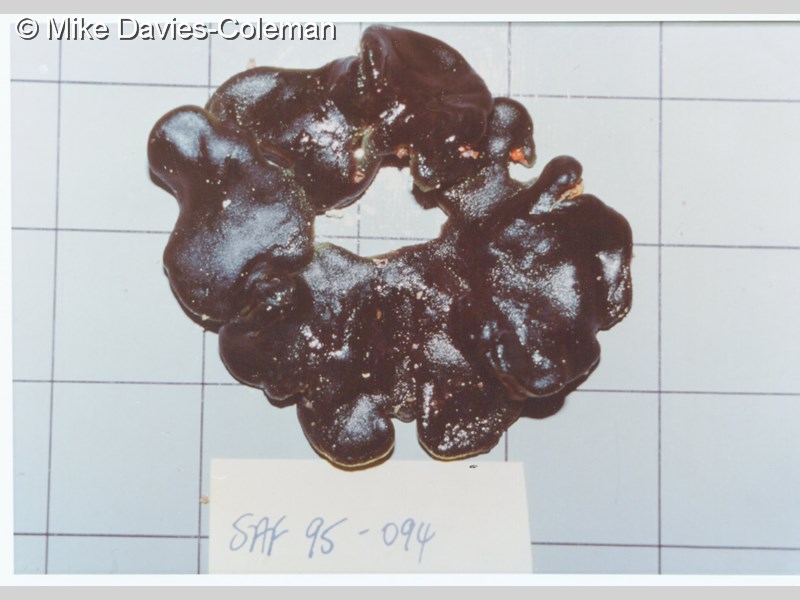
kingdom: Plantae
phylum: Chlorophyta
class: Ulvophyceae
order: Bryopsidales
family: Codiaceae
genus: Codium
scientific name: Codium
